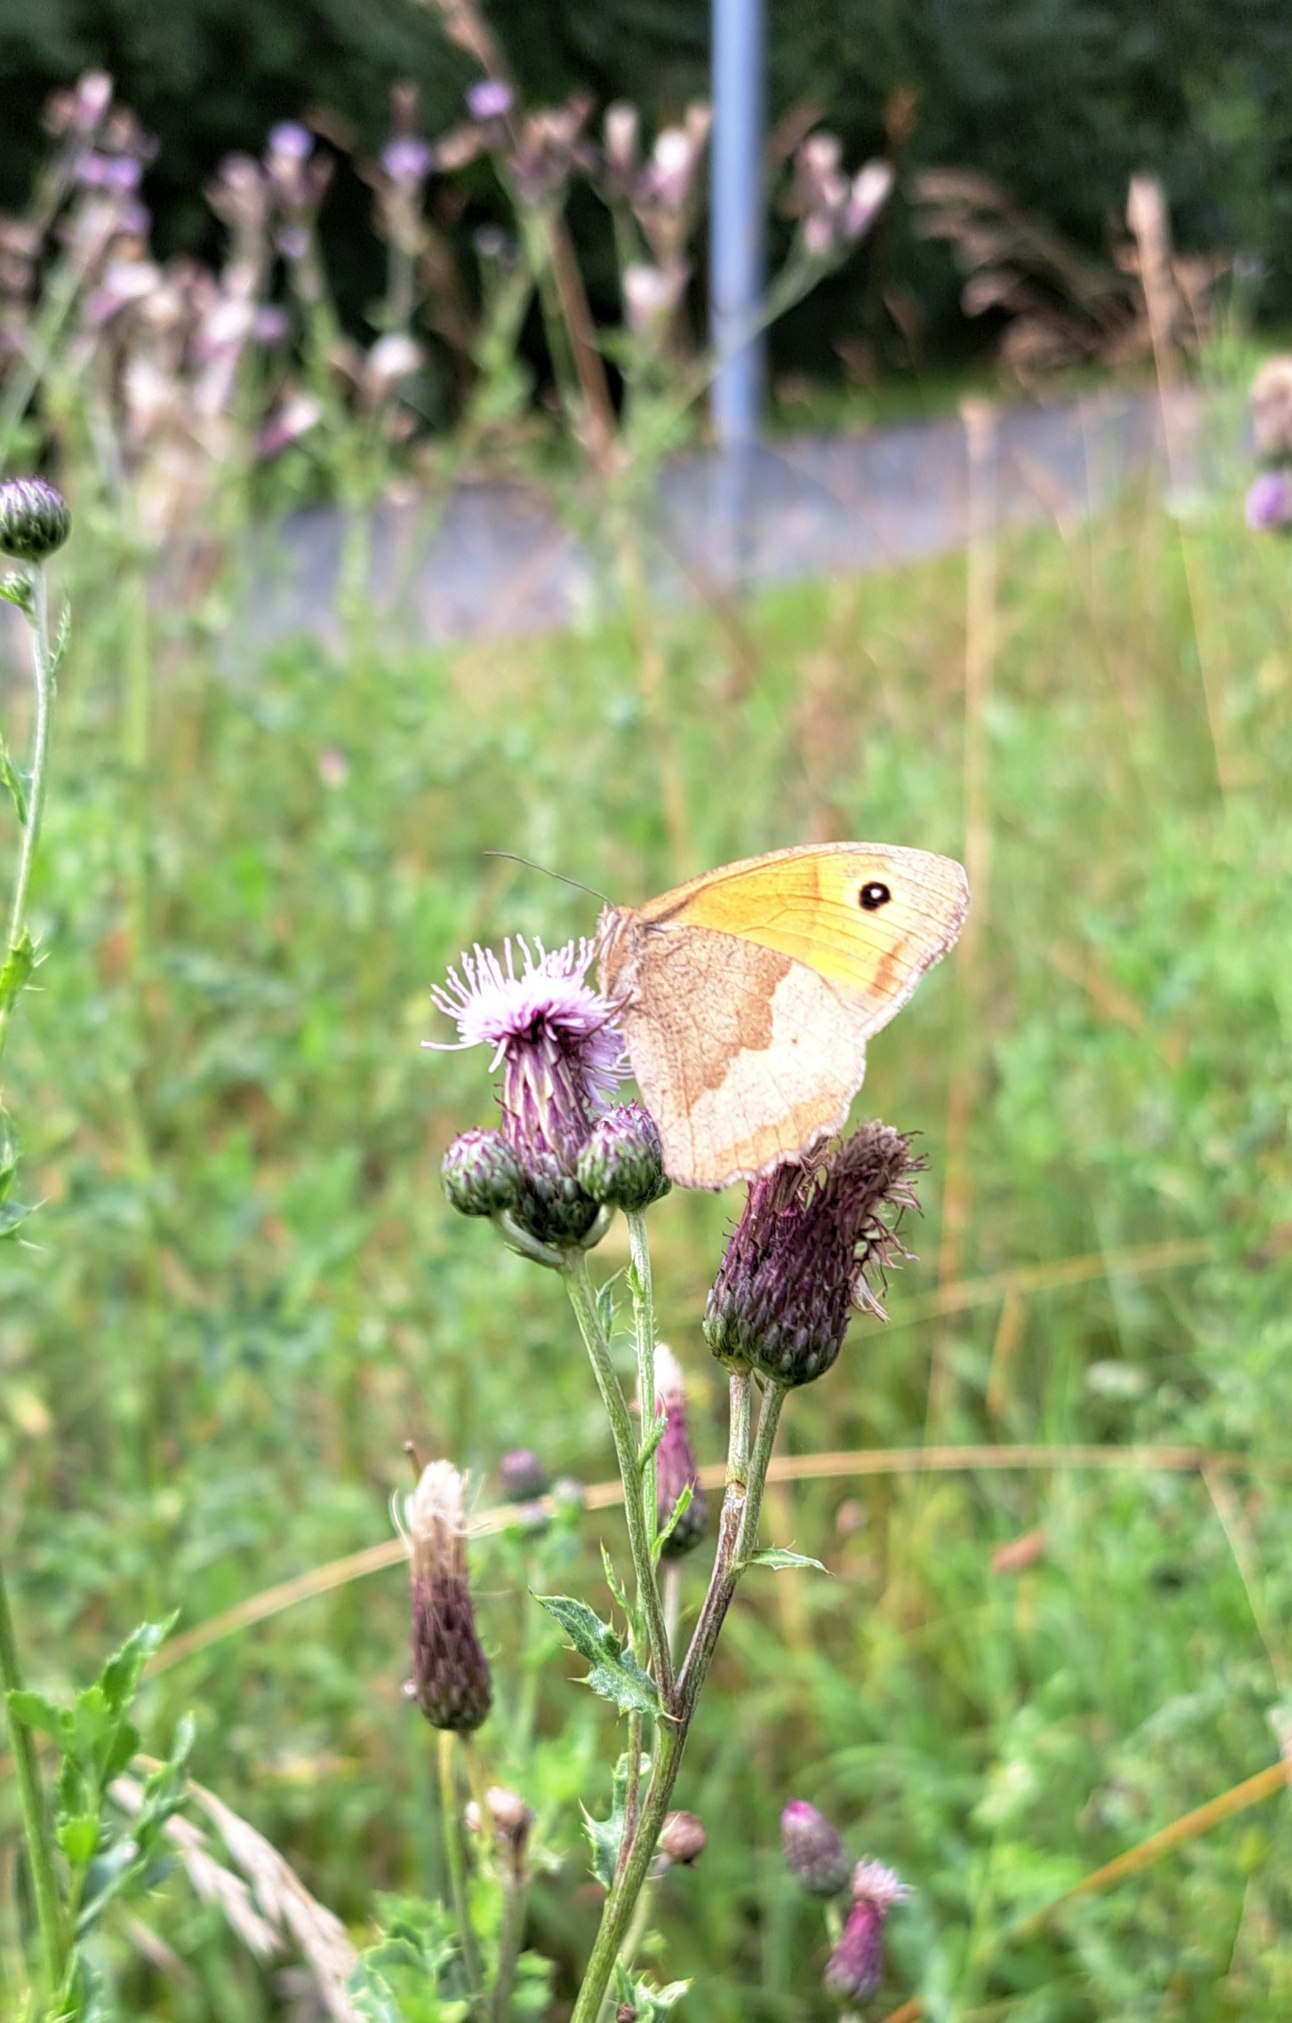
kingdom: Animalia
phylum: Arthropoda
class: Insecta
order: Lepidoptera
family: Nymphalidae
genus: Maniola
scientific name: Maniola jurtina
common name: Græsrandøje
